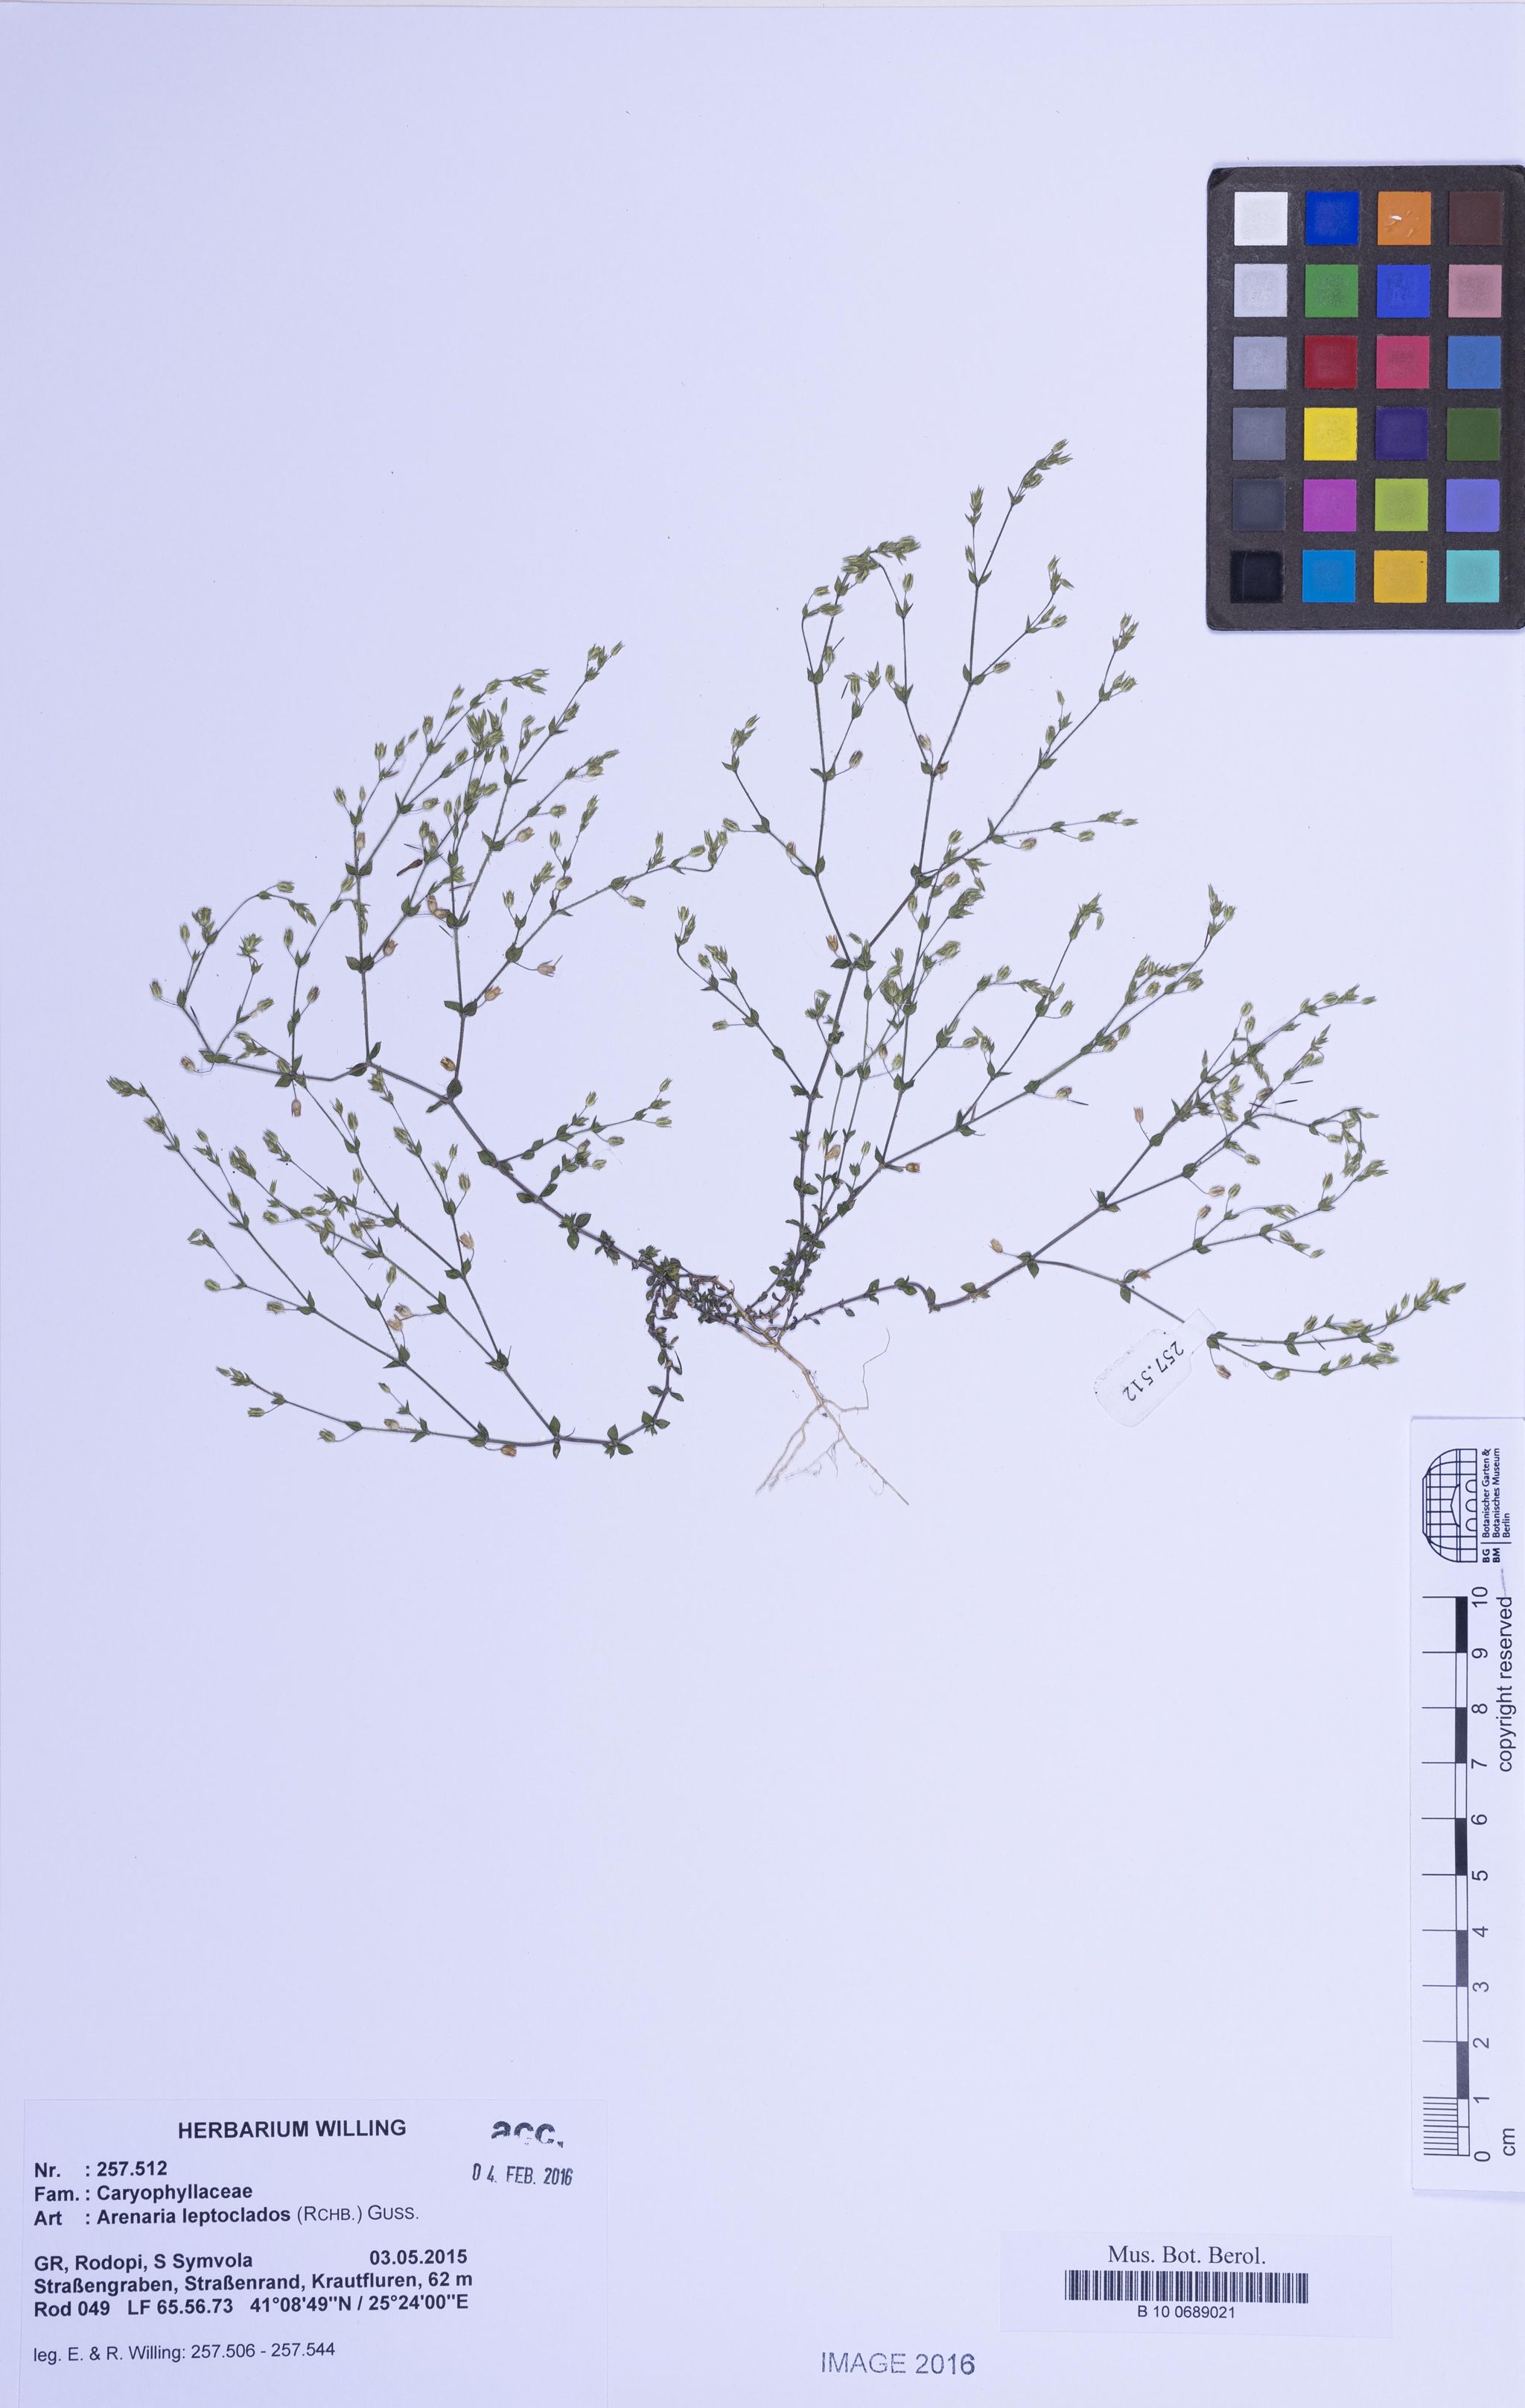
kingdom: Plantae
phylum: Tracheophyta
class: Magnoliopsida
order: Caryophyllales
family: Caryophyllaceae
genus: Arenaria
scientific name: Arenaria leptoclados
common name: Thyme-leaved sandwort
